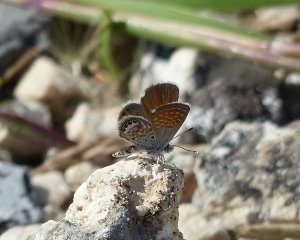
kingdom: Animalia
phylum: Arthropoda
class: Insecta
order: Lepidoptera
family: Lycaenidae
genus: Brephidium
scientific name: Brephidium exilis
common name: Western Pygmy-Blue
